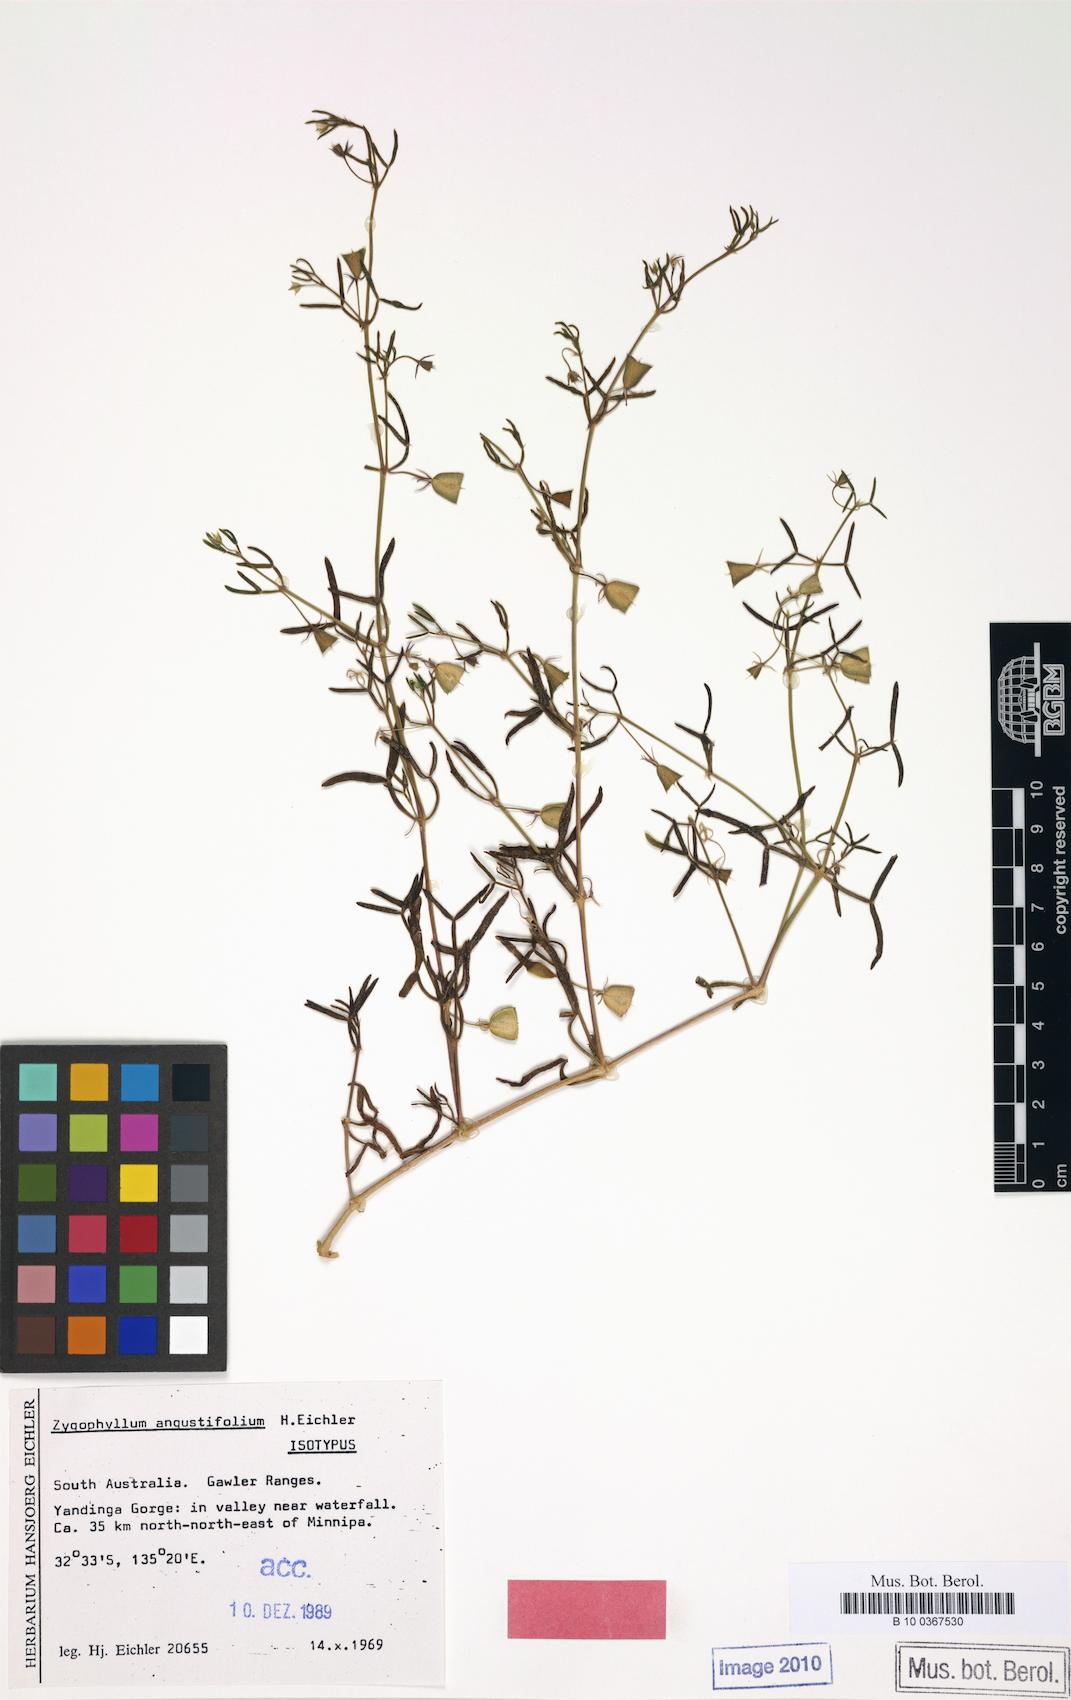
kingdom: Plantae
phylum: Tracheophyta
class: Magnoliopsida
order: Zygophyllales
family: Zygophyllaceae
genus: Roepera
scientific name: Roepera angustifolia
